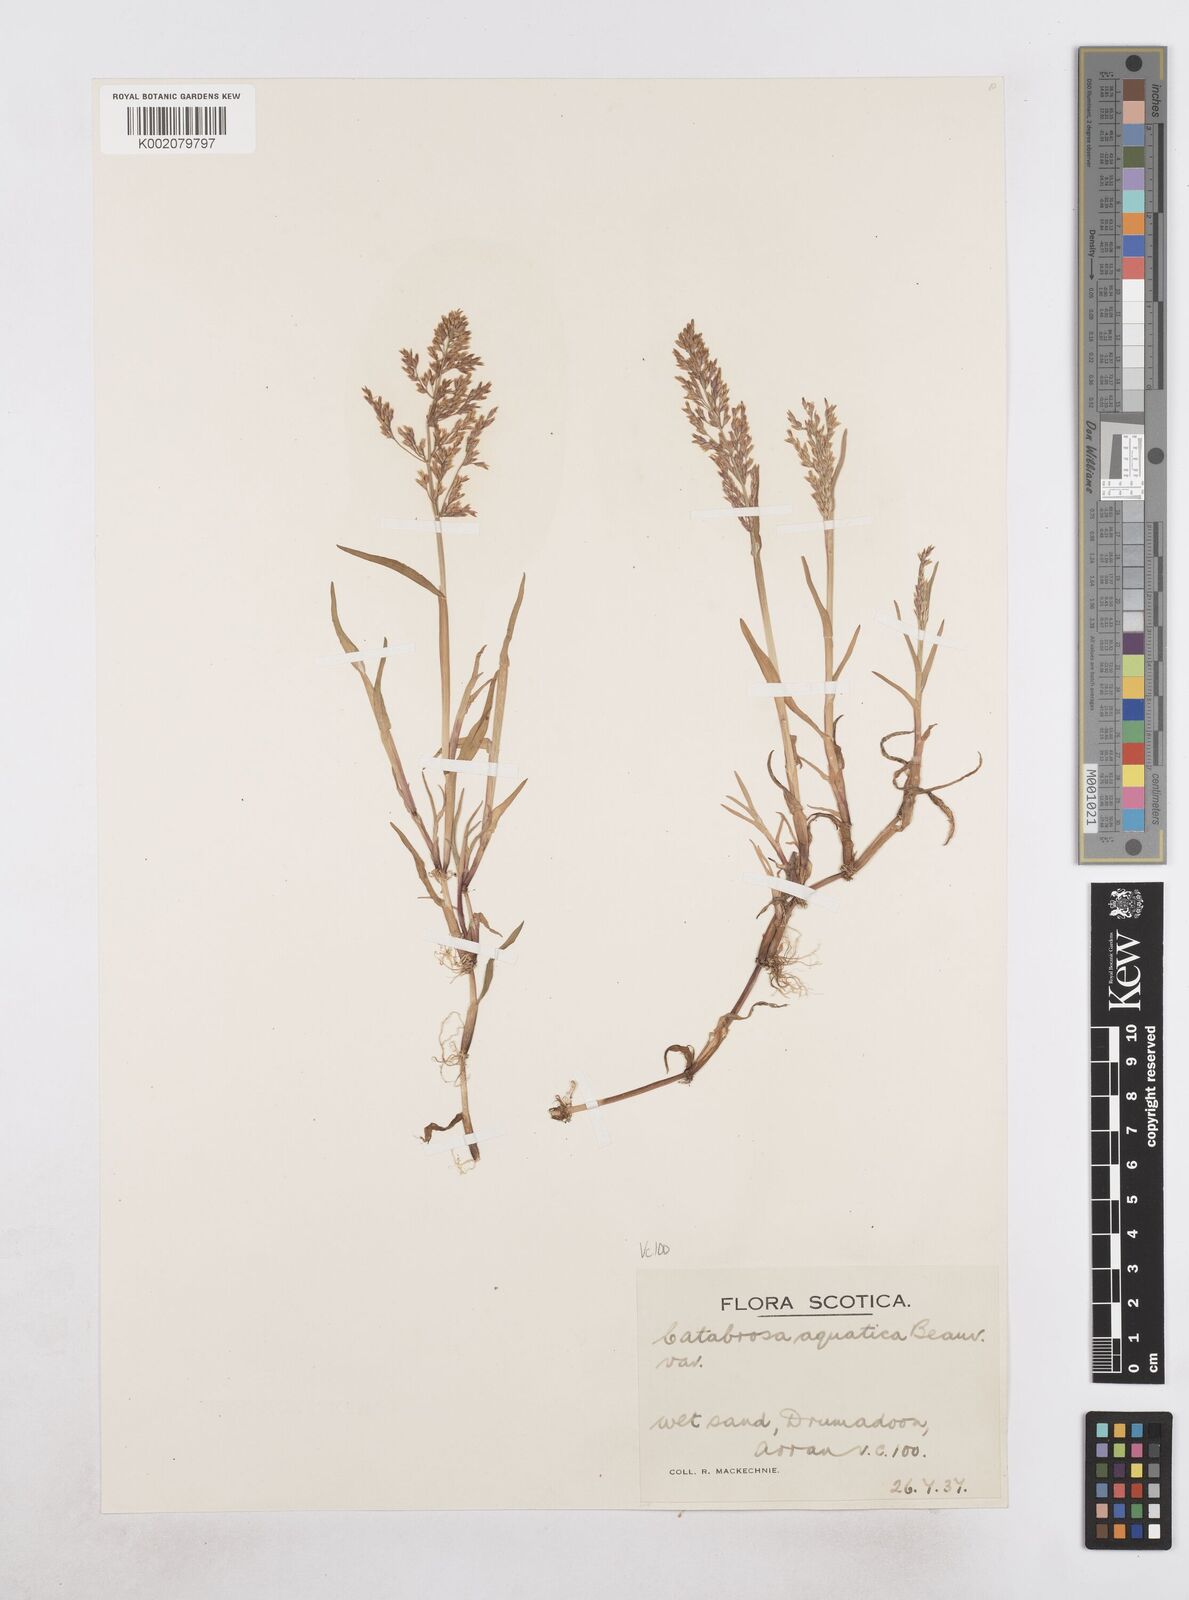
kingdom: Plantae
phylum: Tracheophyta
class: Liliopsida
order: Poales
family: Poaceae
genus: Catabrosa
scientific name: Catabrosa aquatica
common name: Whorl-grass
